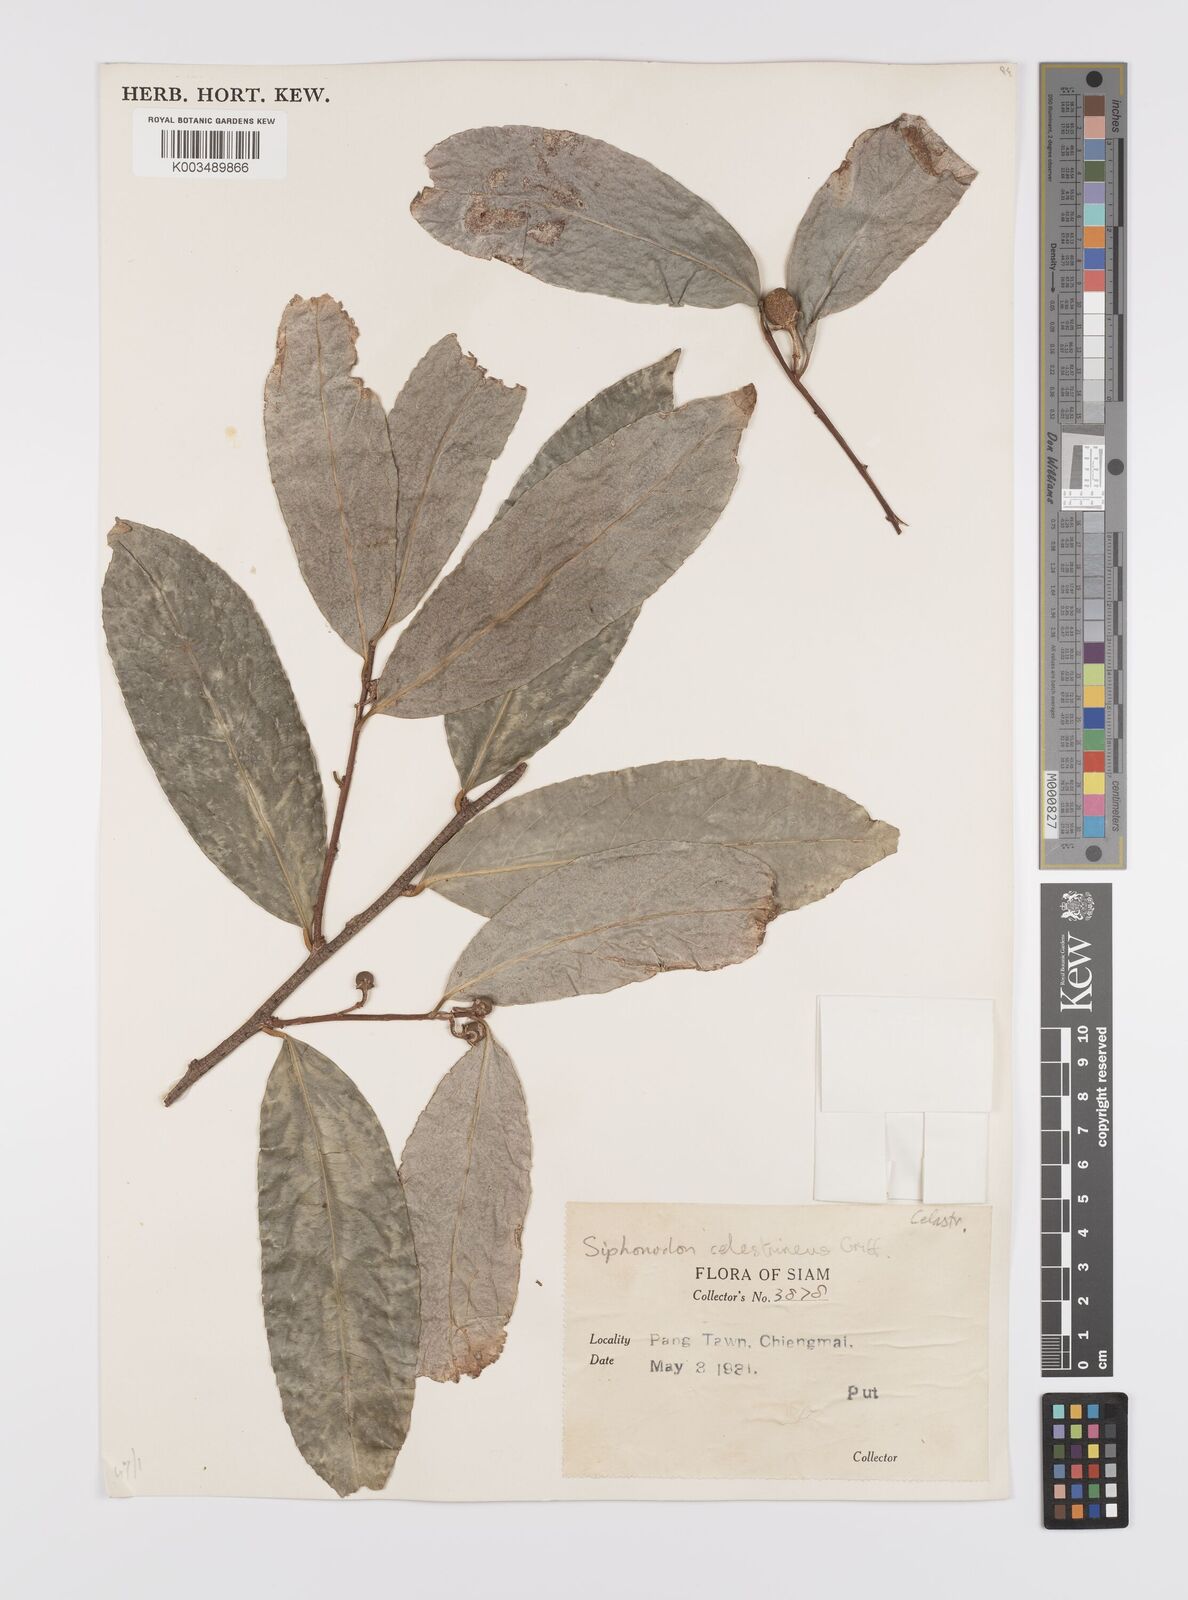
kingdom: Plantae
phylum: Tracheophyta
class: Magnoliopsida
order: Celastrales
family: Celastraceae
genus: Siphonodon
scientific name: Siphonodon celastrineus
